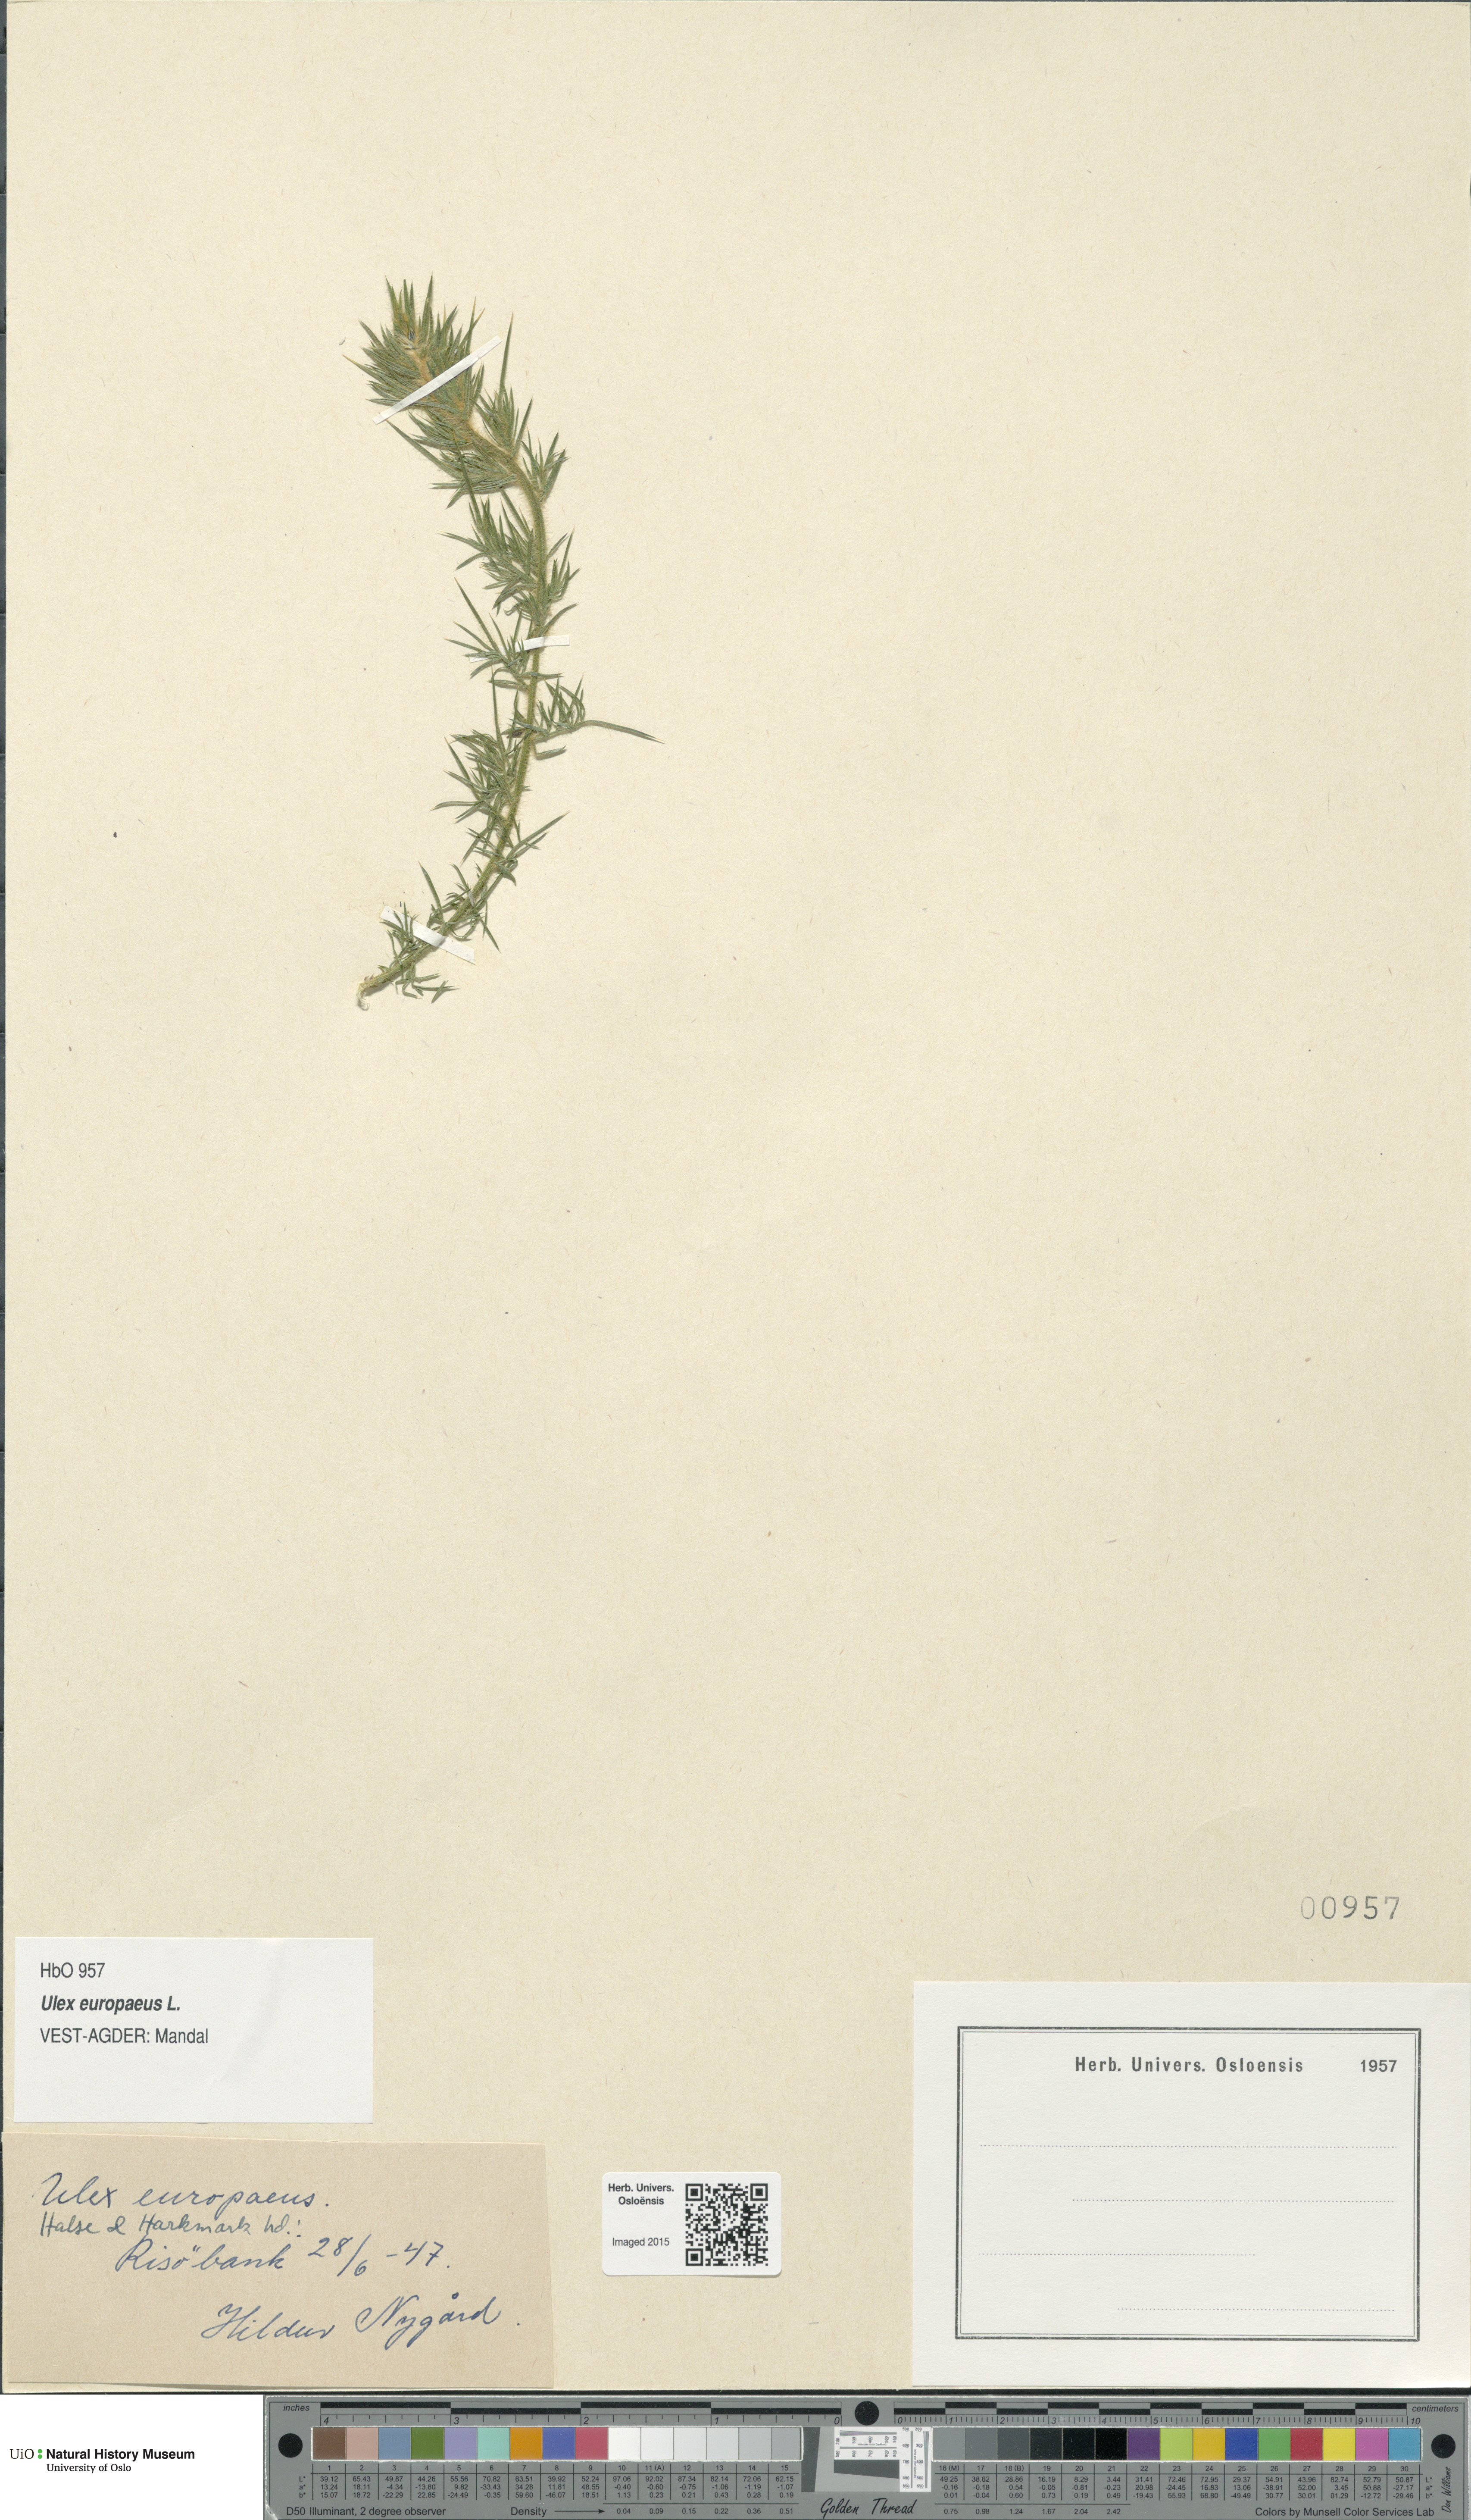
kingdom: Plantae
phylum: Tracheophyta
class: Magnoliopsida
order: Fabales
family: Fabaceae
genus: Ulex
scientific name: Ulex europaeus
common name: Common gorse
